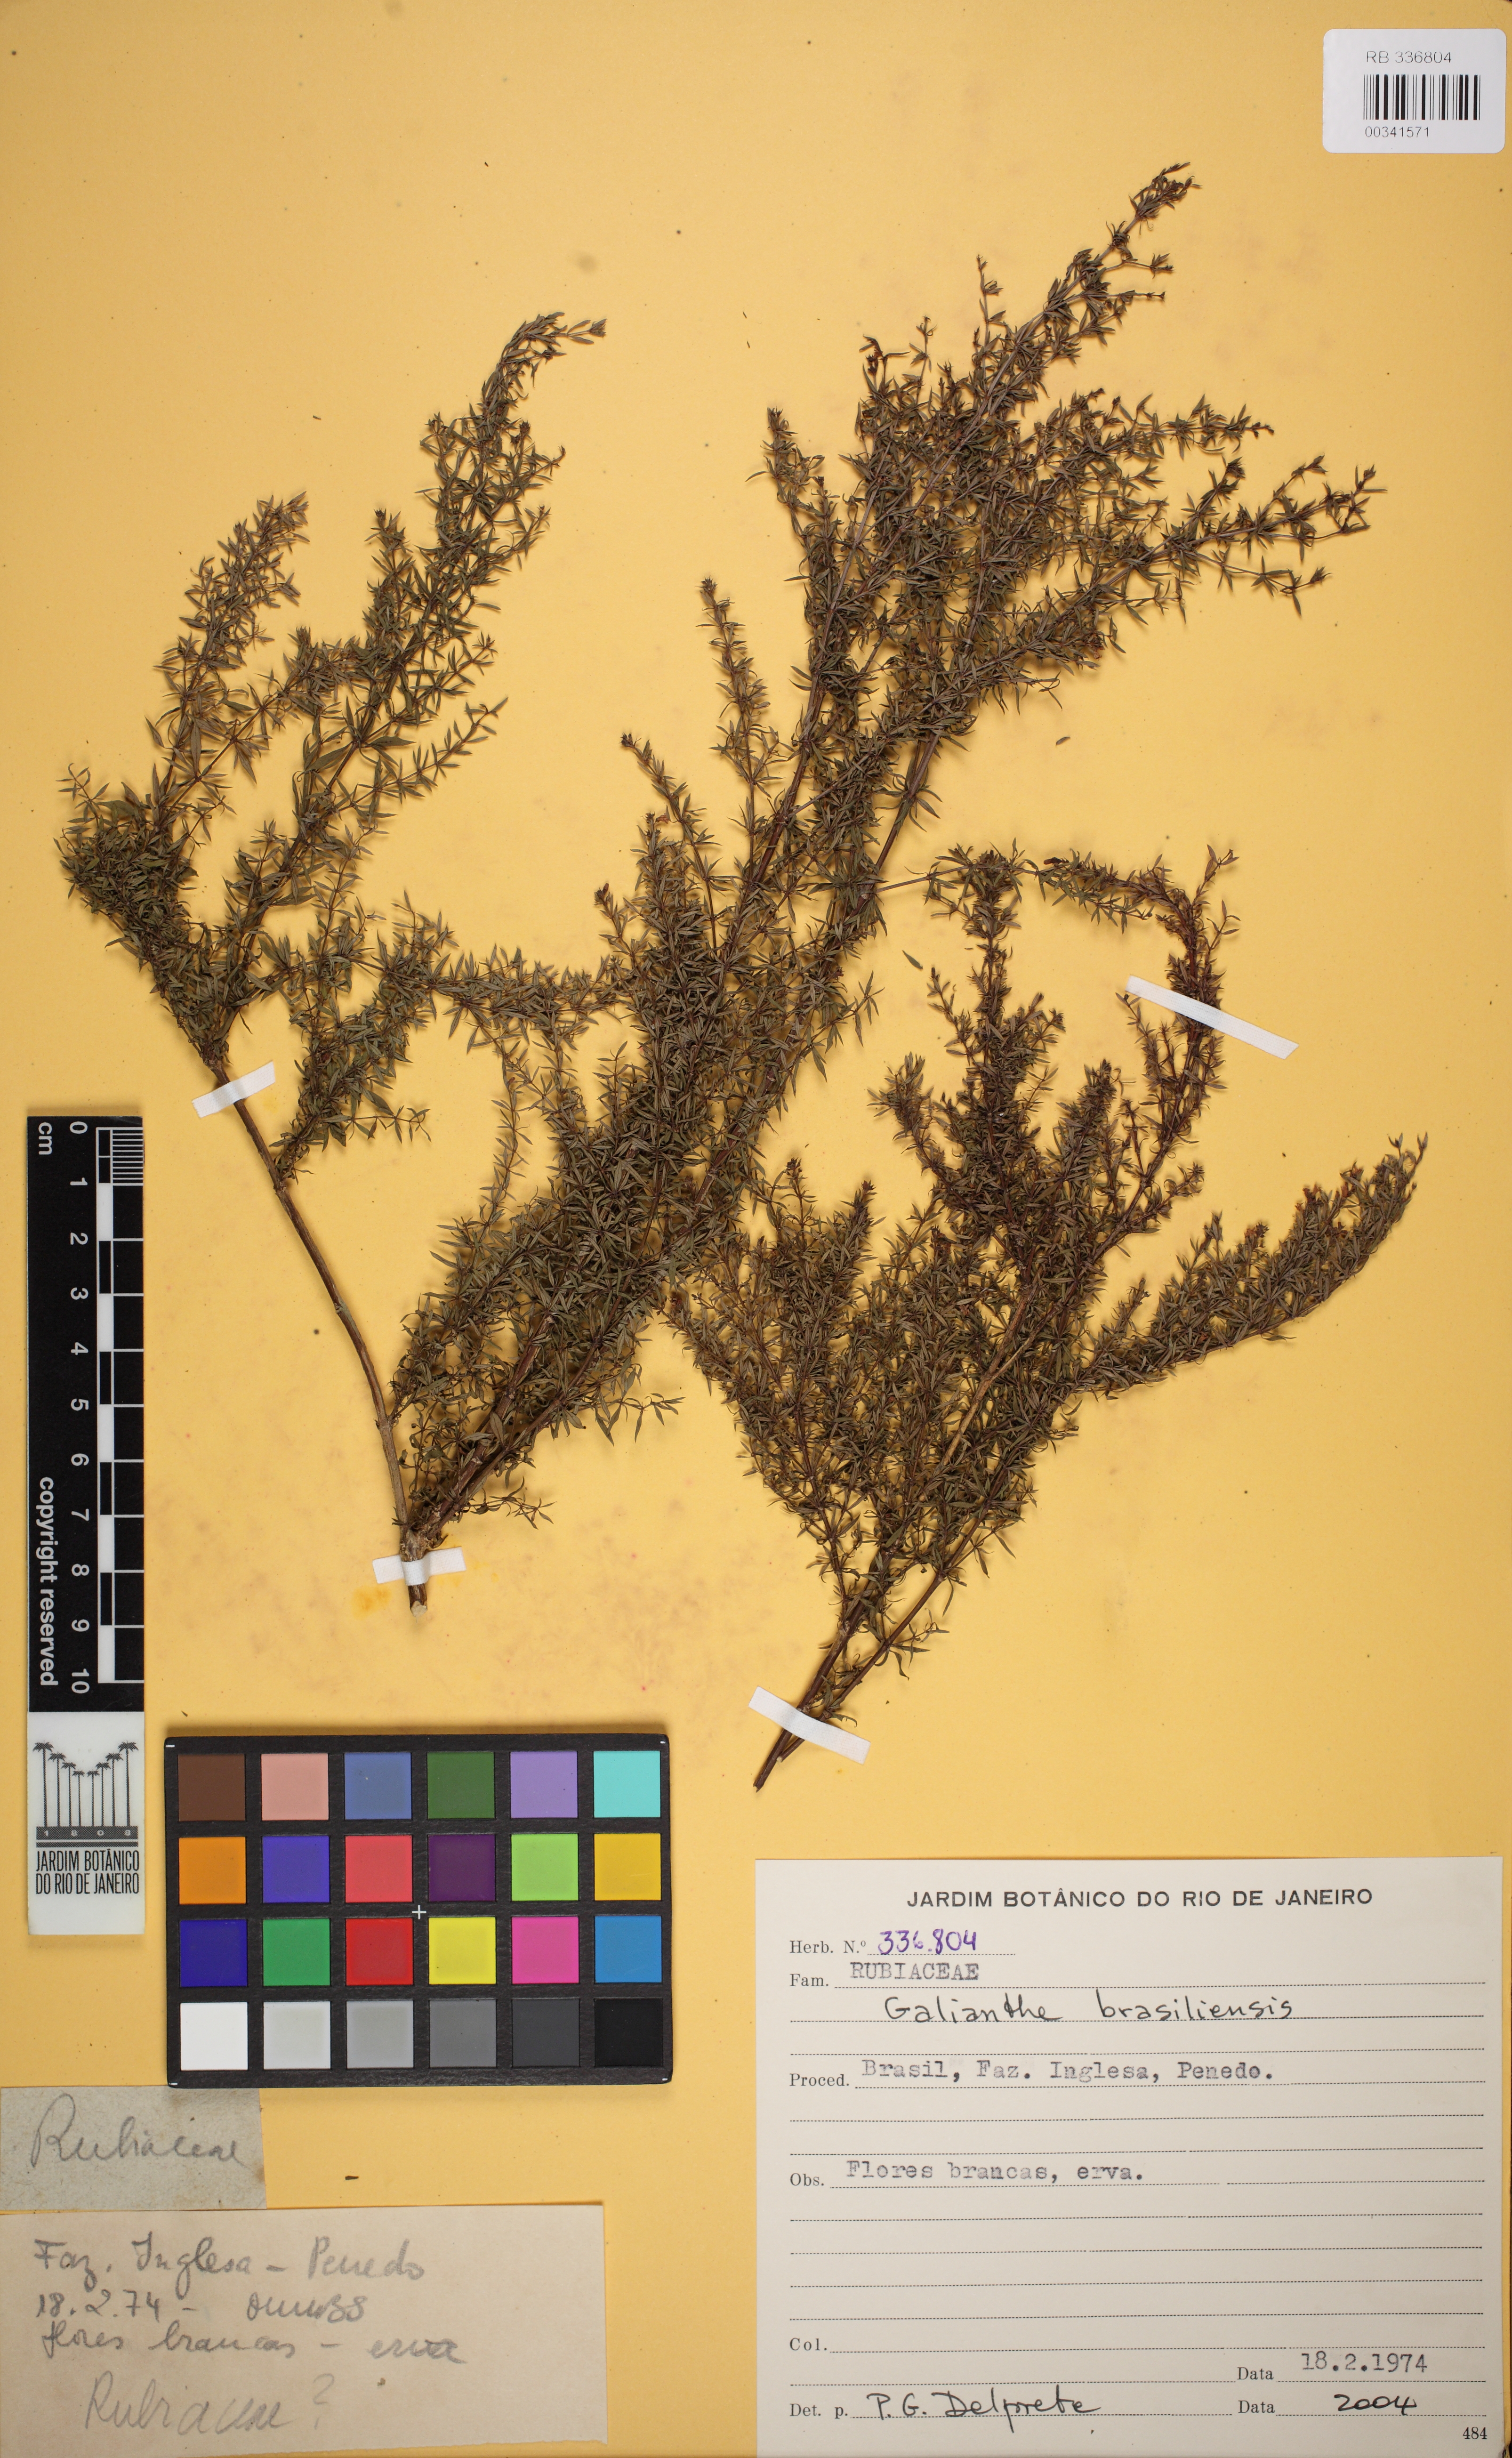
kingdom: Plantae
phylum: Tracheophyta
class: Magnoliopsida
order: Gentianales
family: Rubiaceae
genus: Galianthe
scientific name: Galianthe brasiliensis
